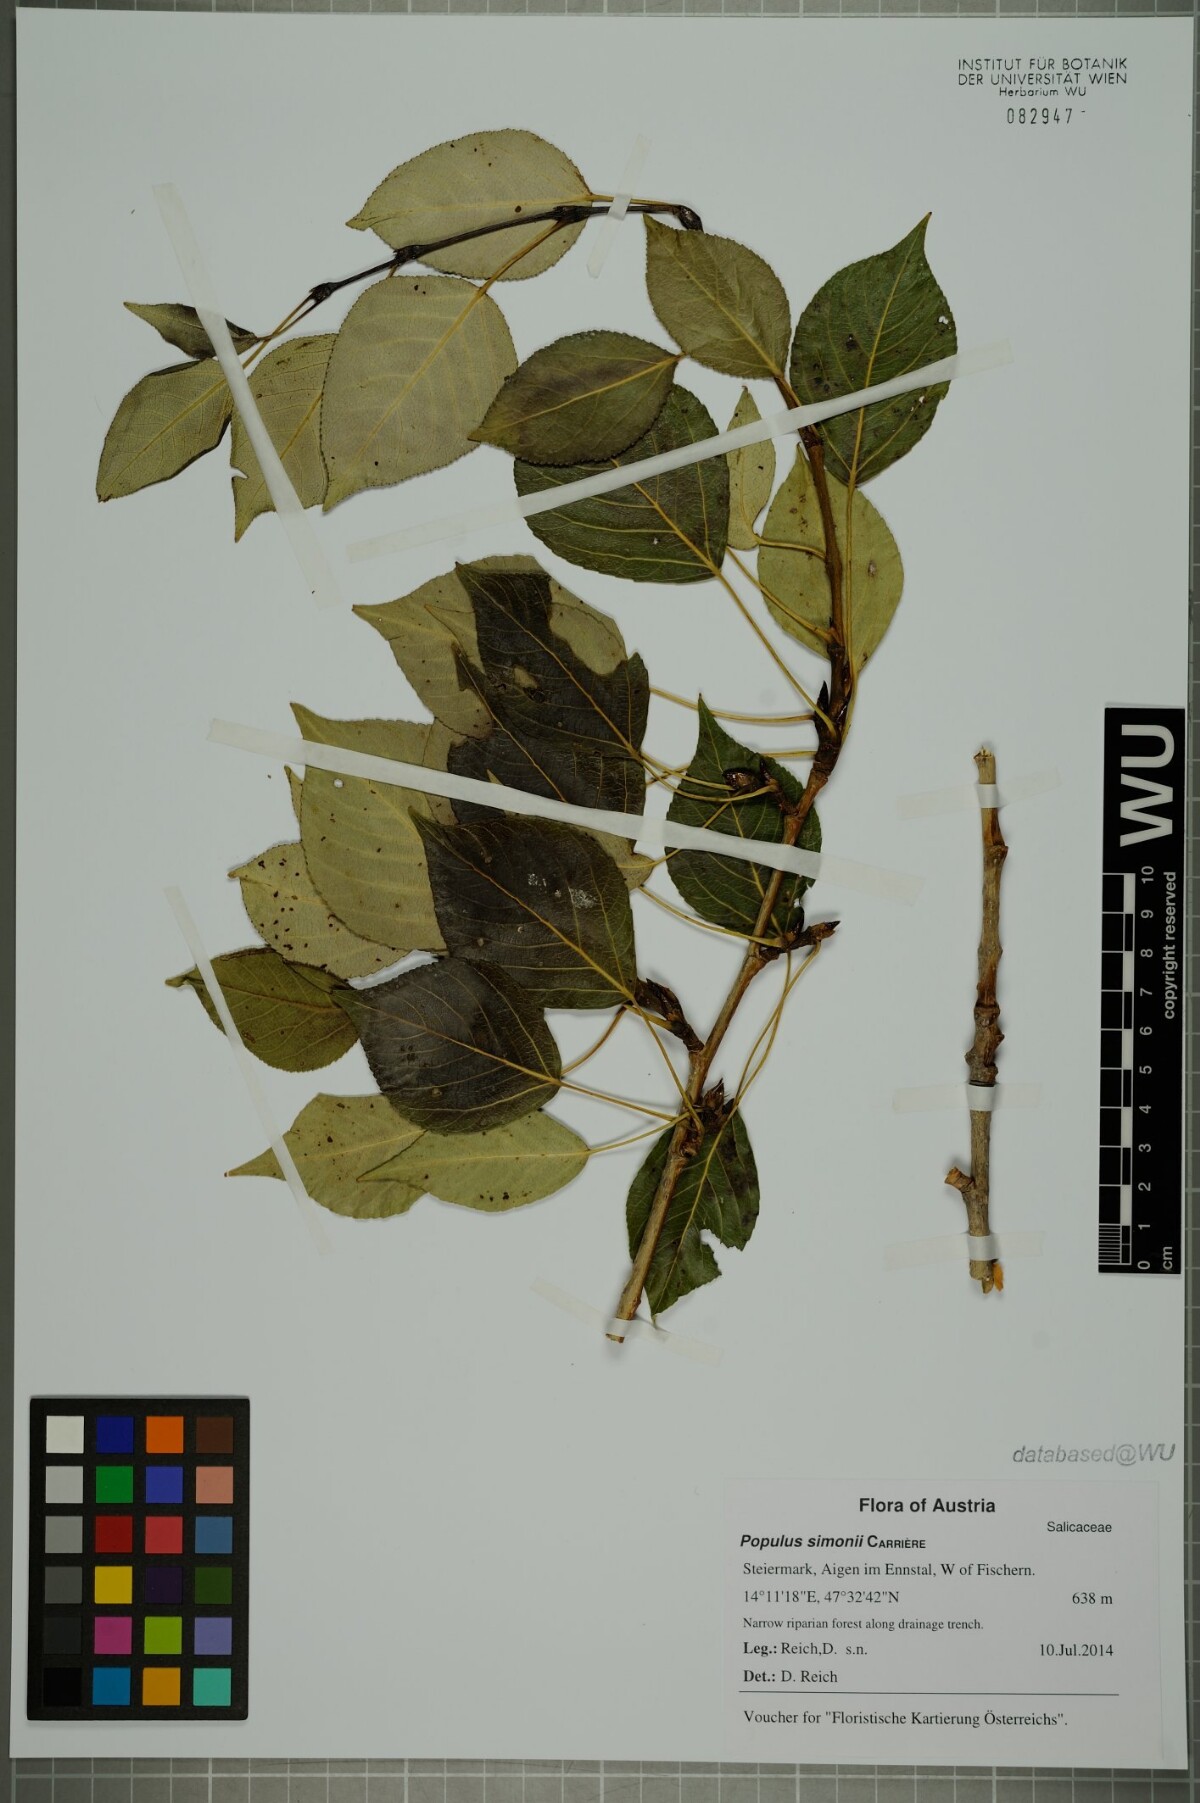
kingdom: Plantae
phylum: Tracheophyta
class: Magnoliopsida
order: Malpighiales
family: Salicaceae
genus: Populus
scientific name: Populus simonii
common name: Simon poplar
